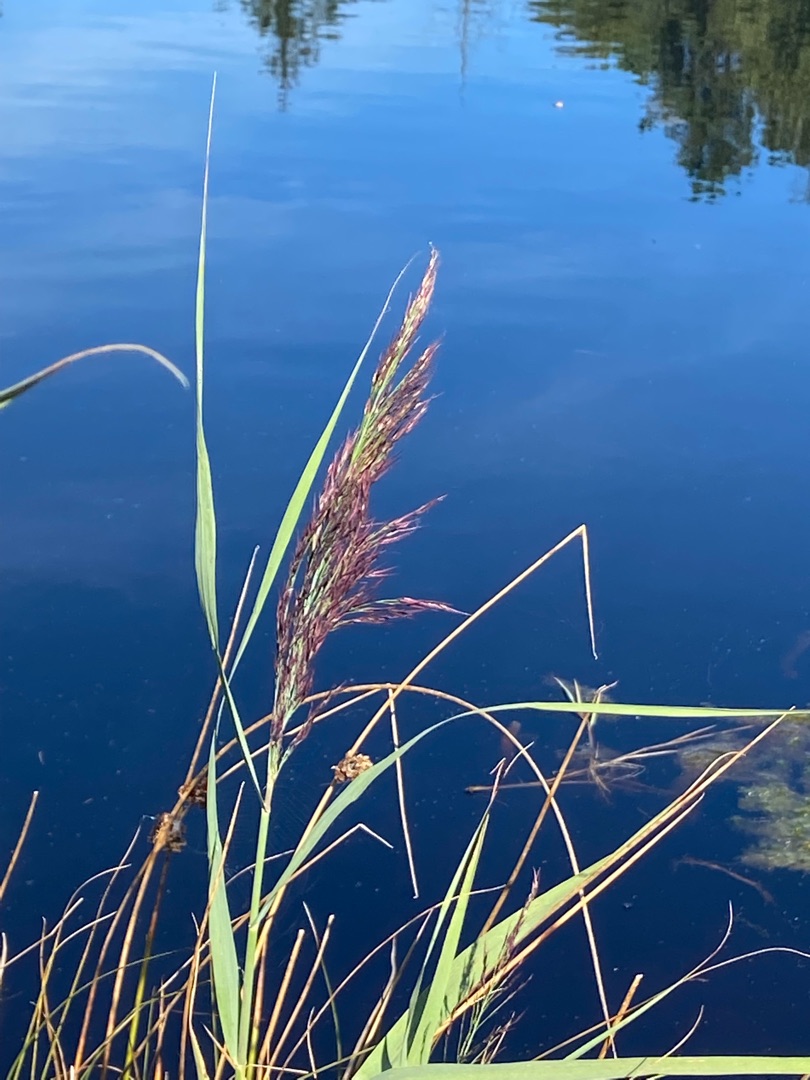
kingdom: Plantae
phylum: Tracheophyta
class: Liliopsida
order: Poales
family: Poaceae
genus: Phragmites
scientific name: Phragmites australis
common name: Tagrør
